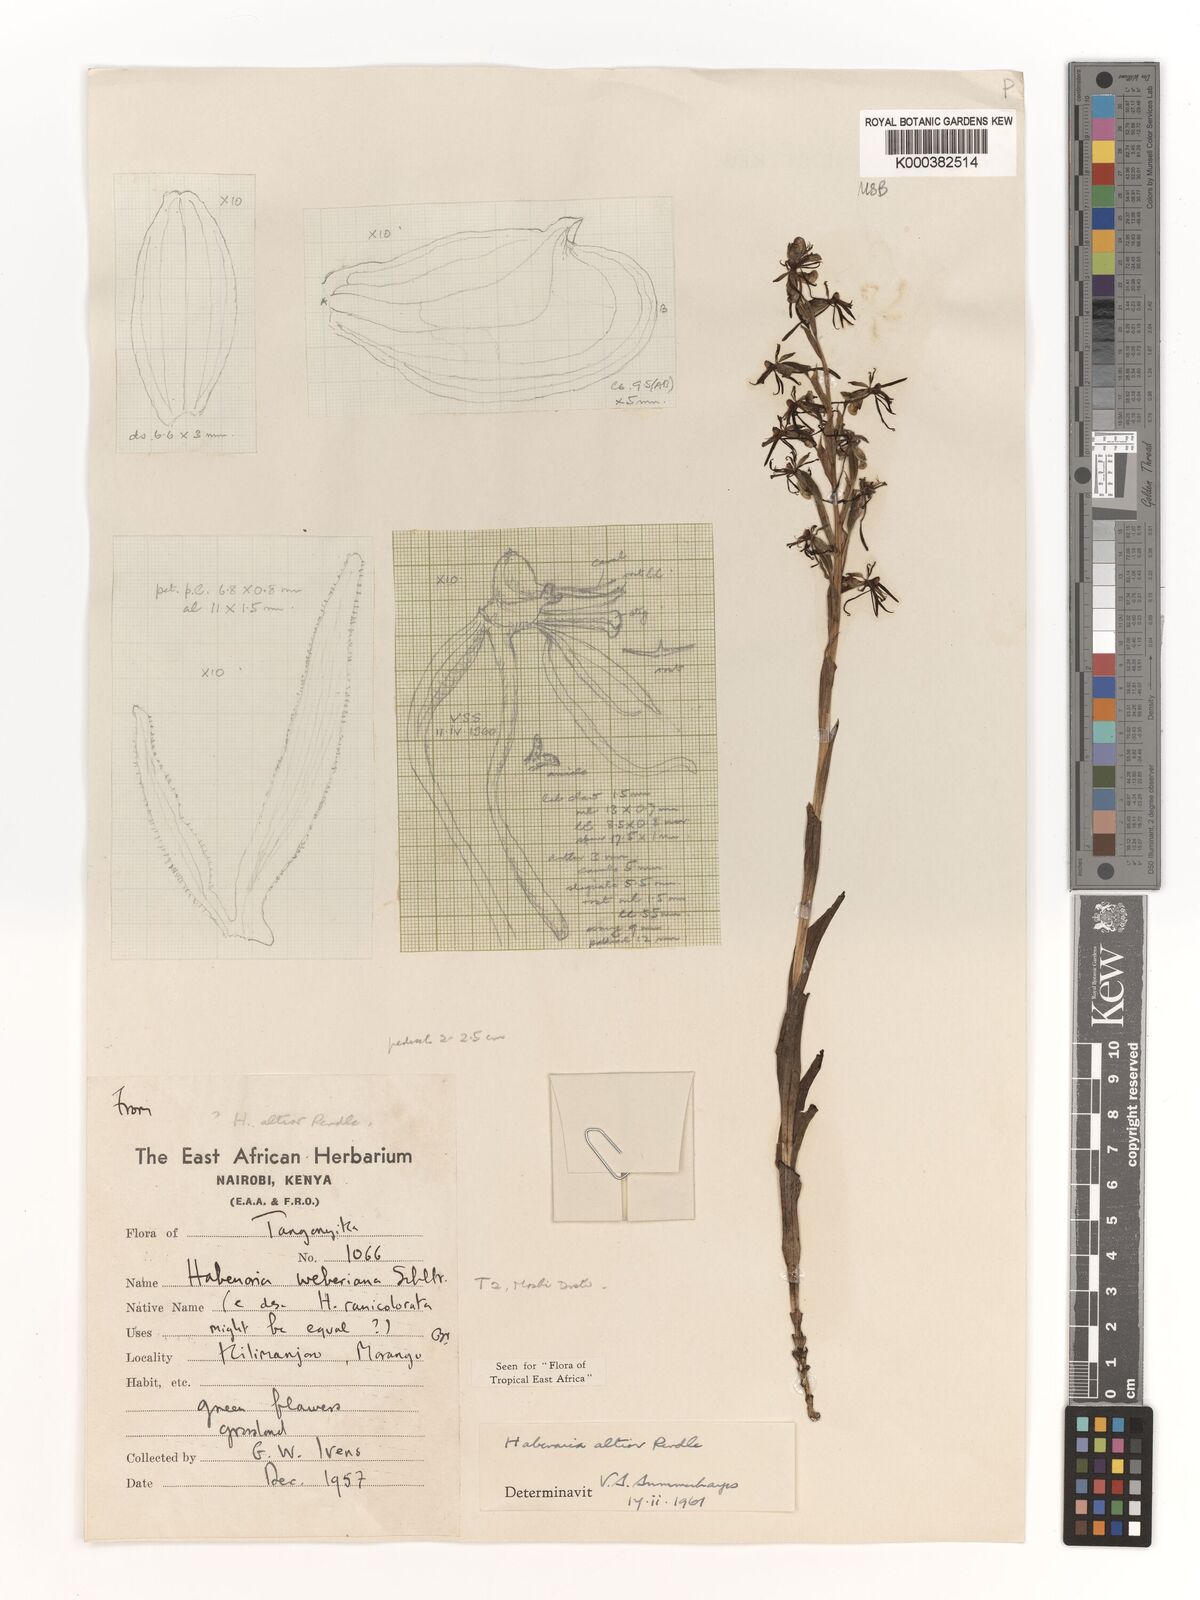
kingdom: Plantae
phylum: Tracheophyta
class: Liliopsida
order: Asparagales
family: Orchidaceae
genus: Habenaria
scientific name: Habenaria altior
